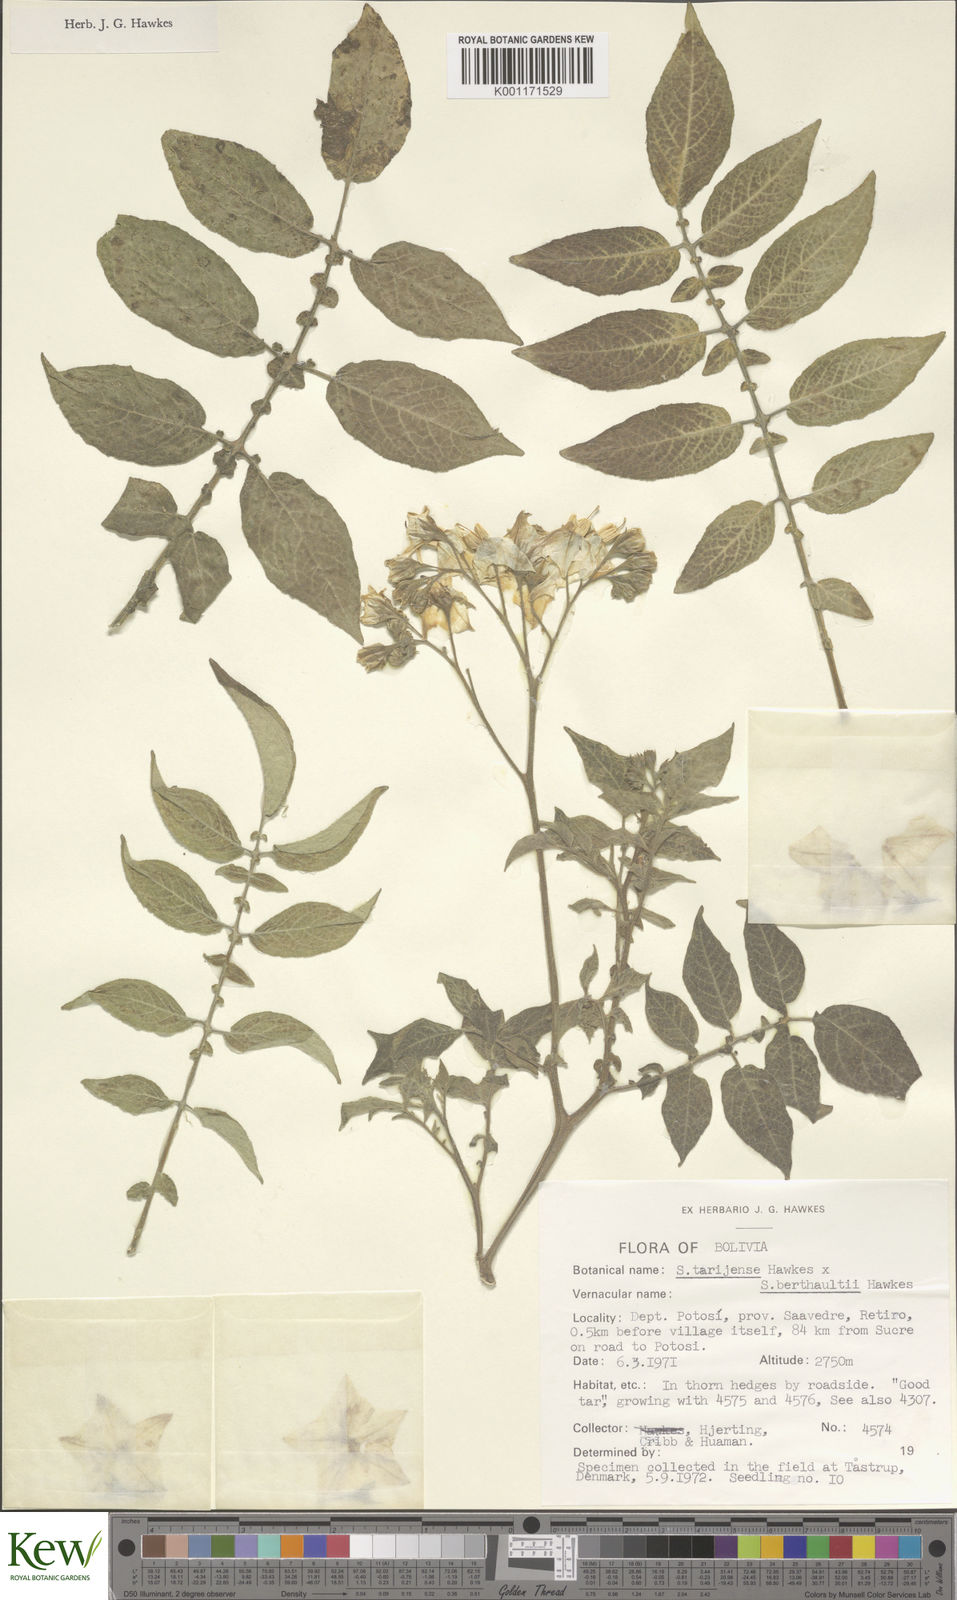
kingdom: Plantae
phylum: Tracheophyta
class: Magnoliopsida
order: Solanales
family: Solanaceae
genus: Solanum
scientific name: Solanum tarijense
